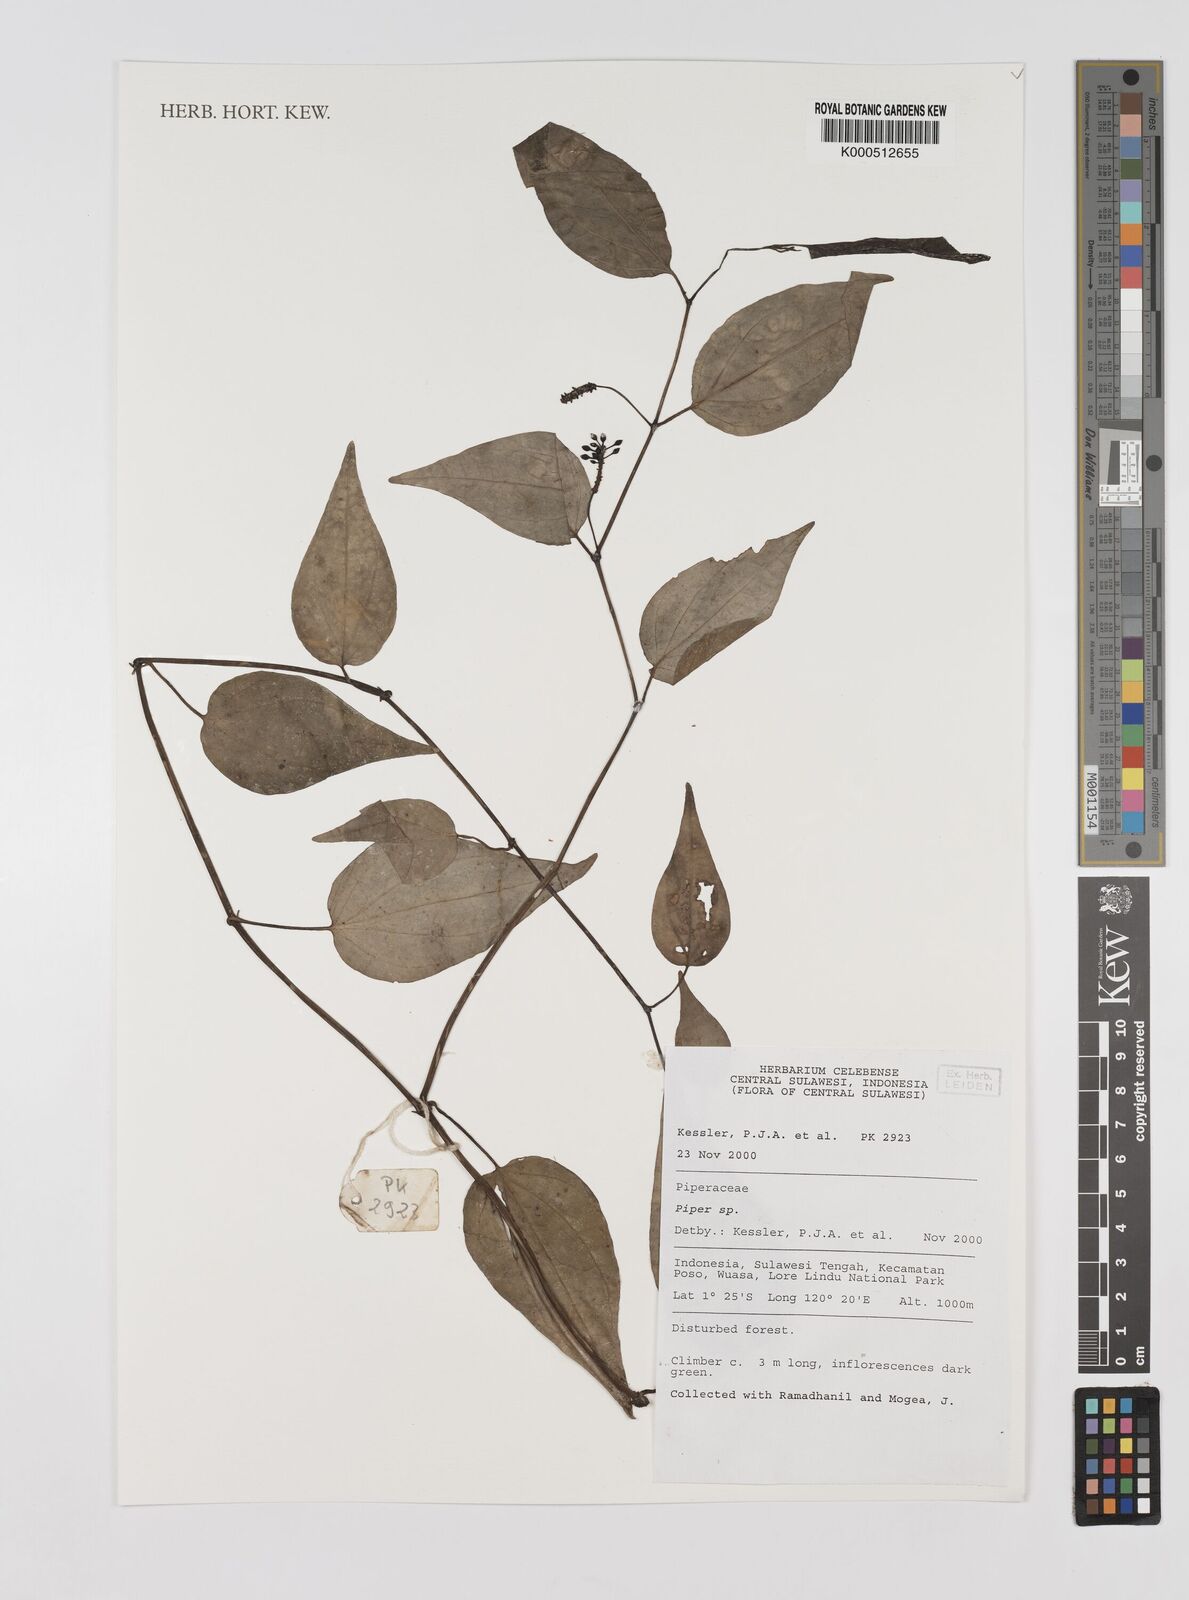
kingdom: Plantae
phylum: Tracheophyta
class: Magnoliopsida
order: Piperales
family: Piperaceae
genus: Piper
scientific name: Piper
